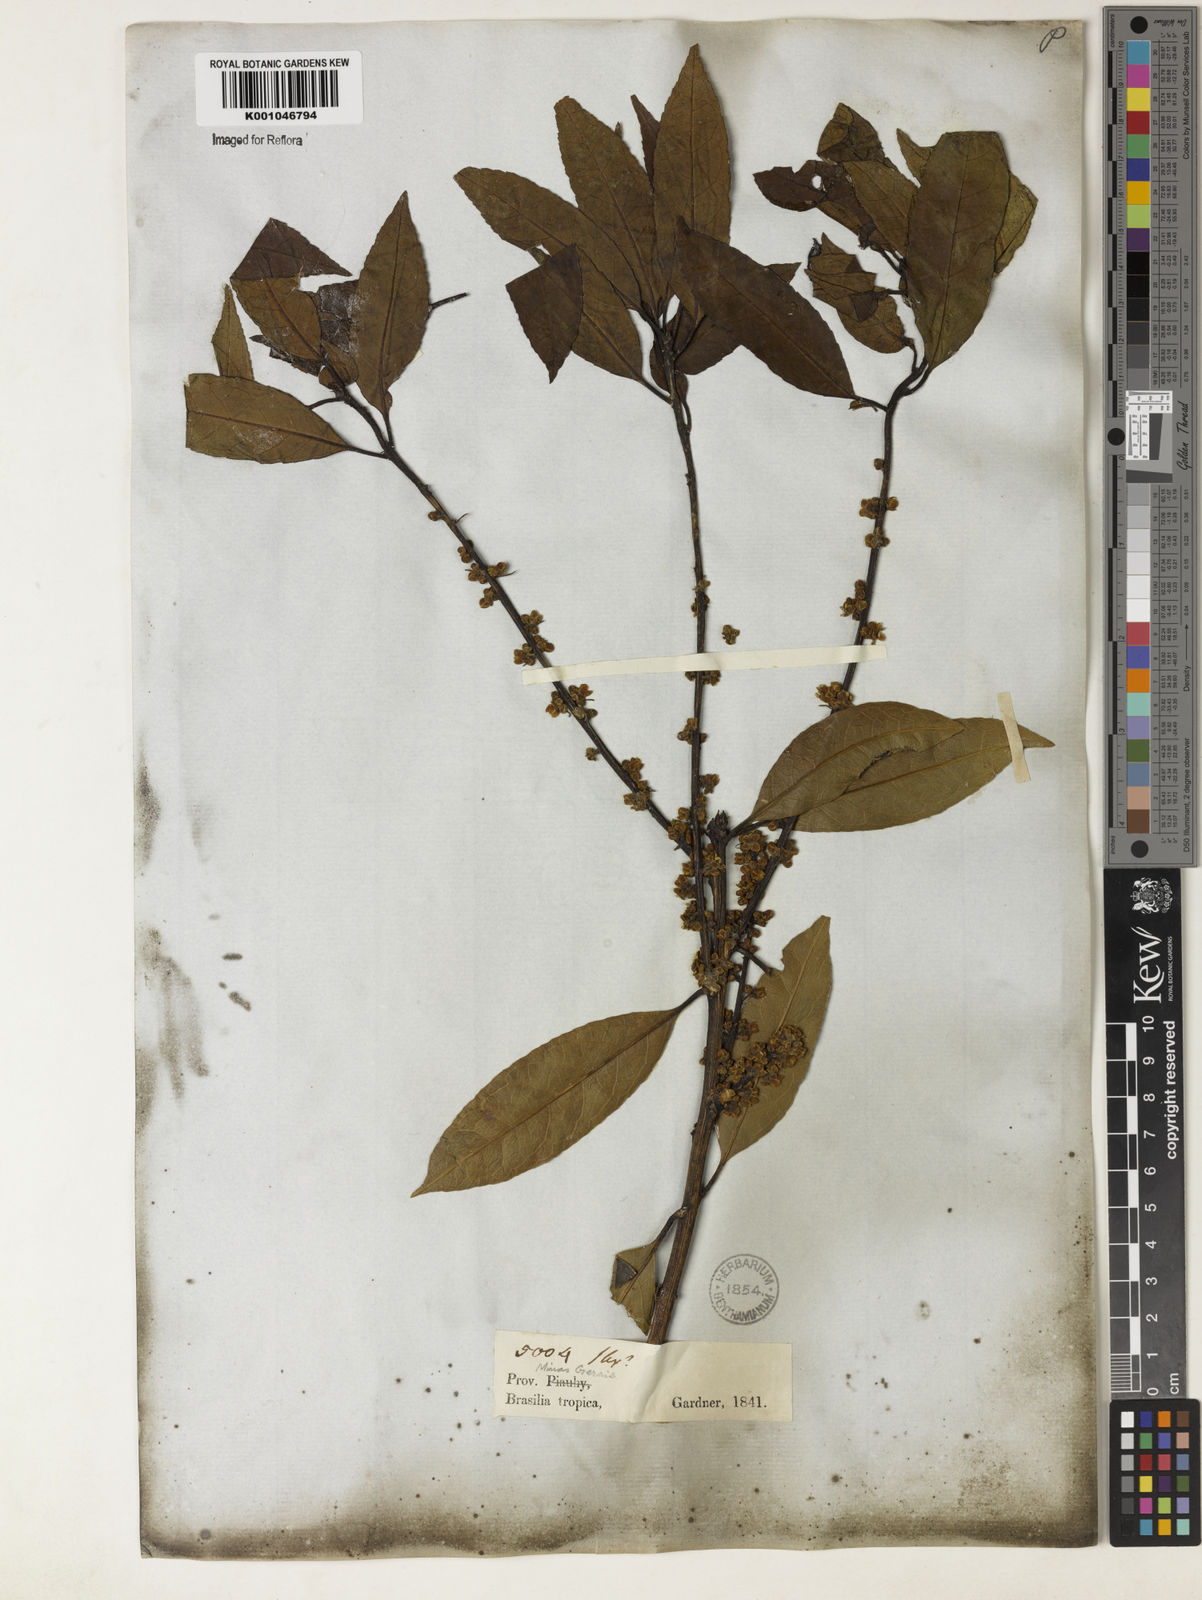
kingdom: Plantae
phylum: Tracheophyta
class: Magnoliopsida
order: Aquifoliales
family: Aquifoliaceae
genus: Ilex
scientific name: Ilex conocarpa
